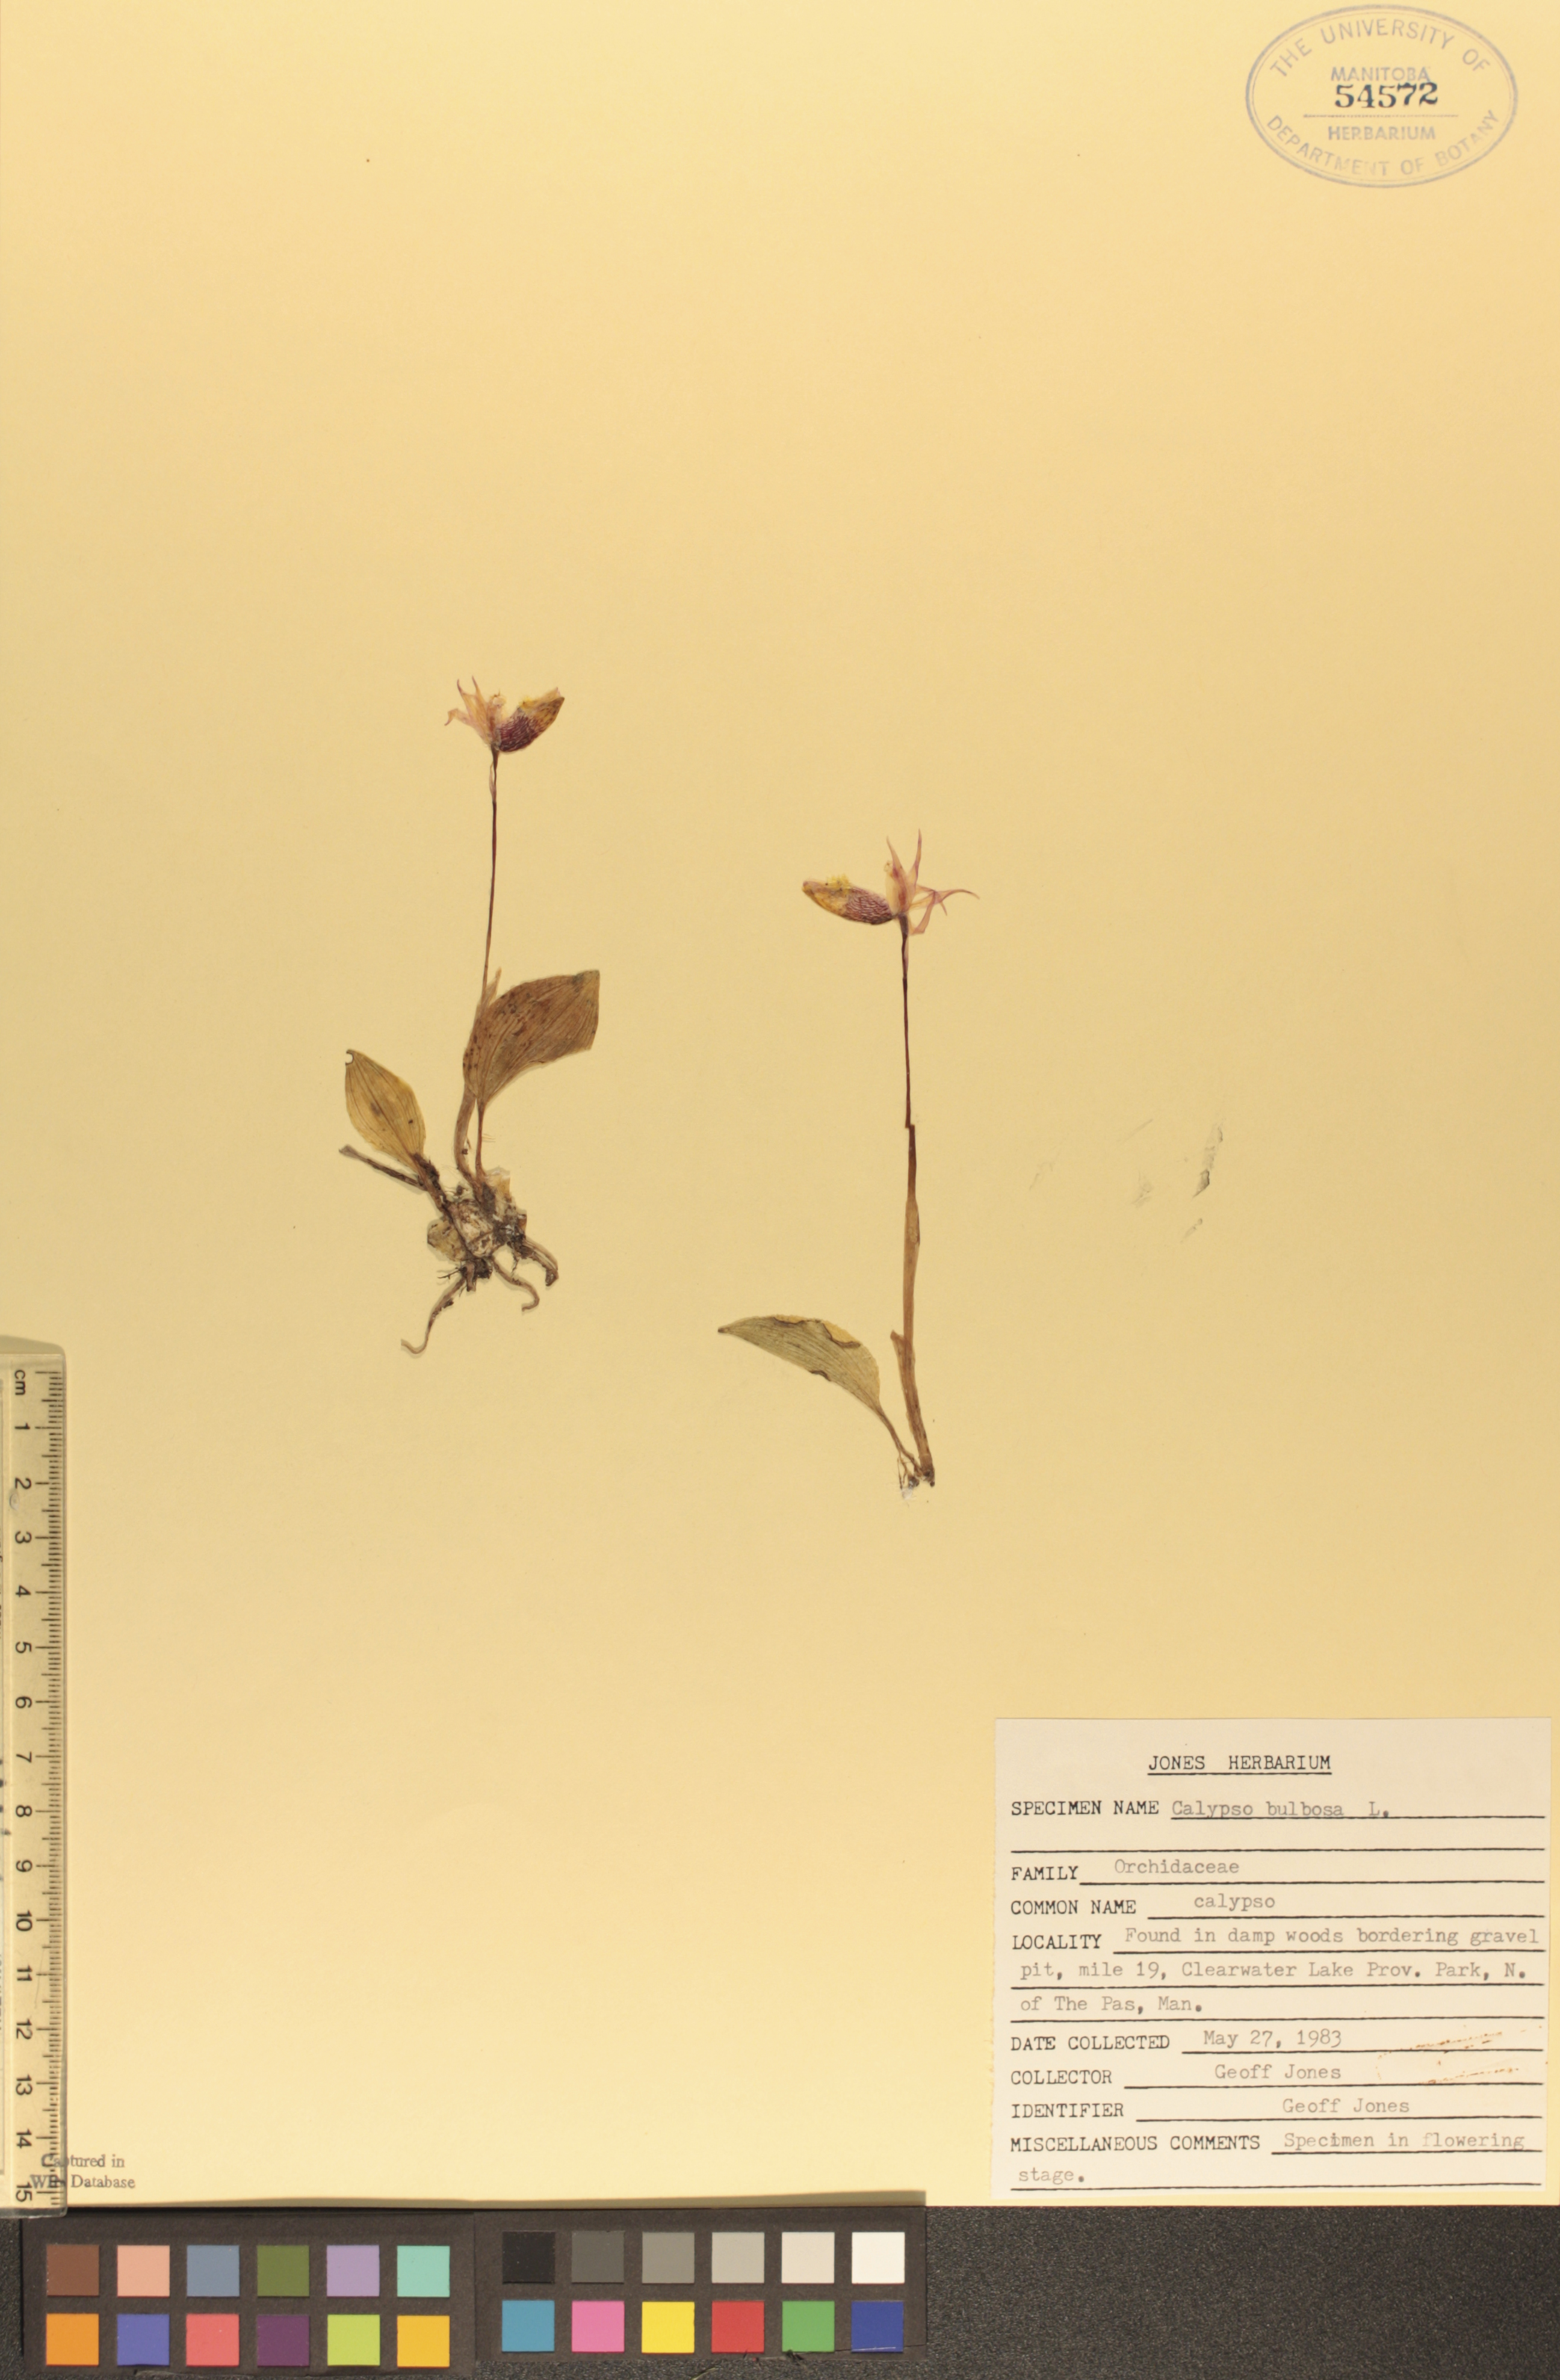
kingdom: Plantae
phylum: Tracheophyta
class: Liliopsida
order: Asparagales
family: Orchidaceae
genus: Calypso
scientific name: Calypso bulbosa
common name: Calypso
